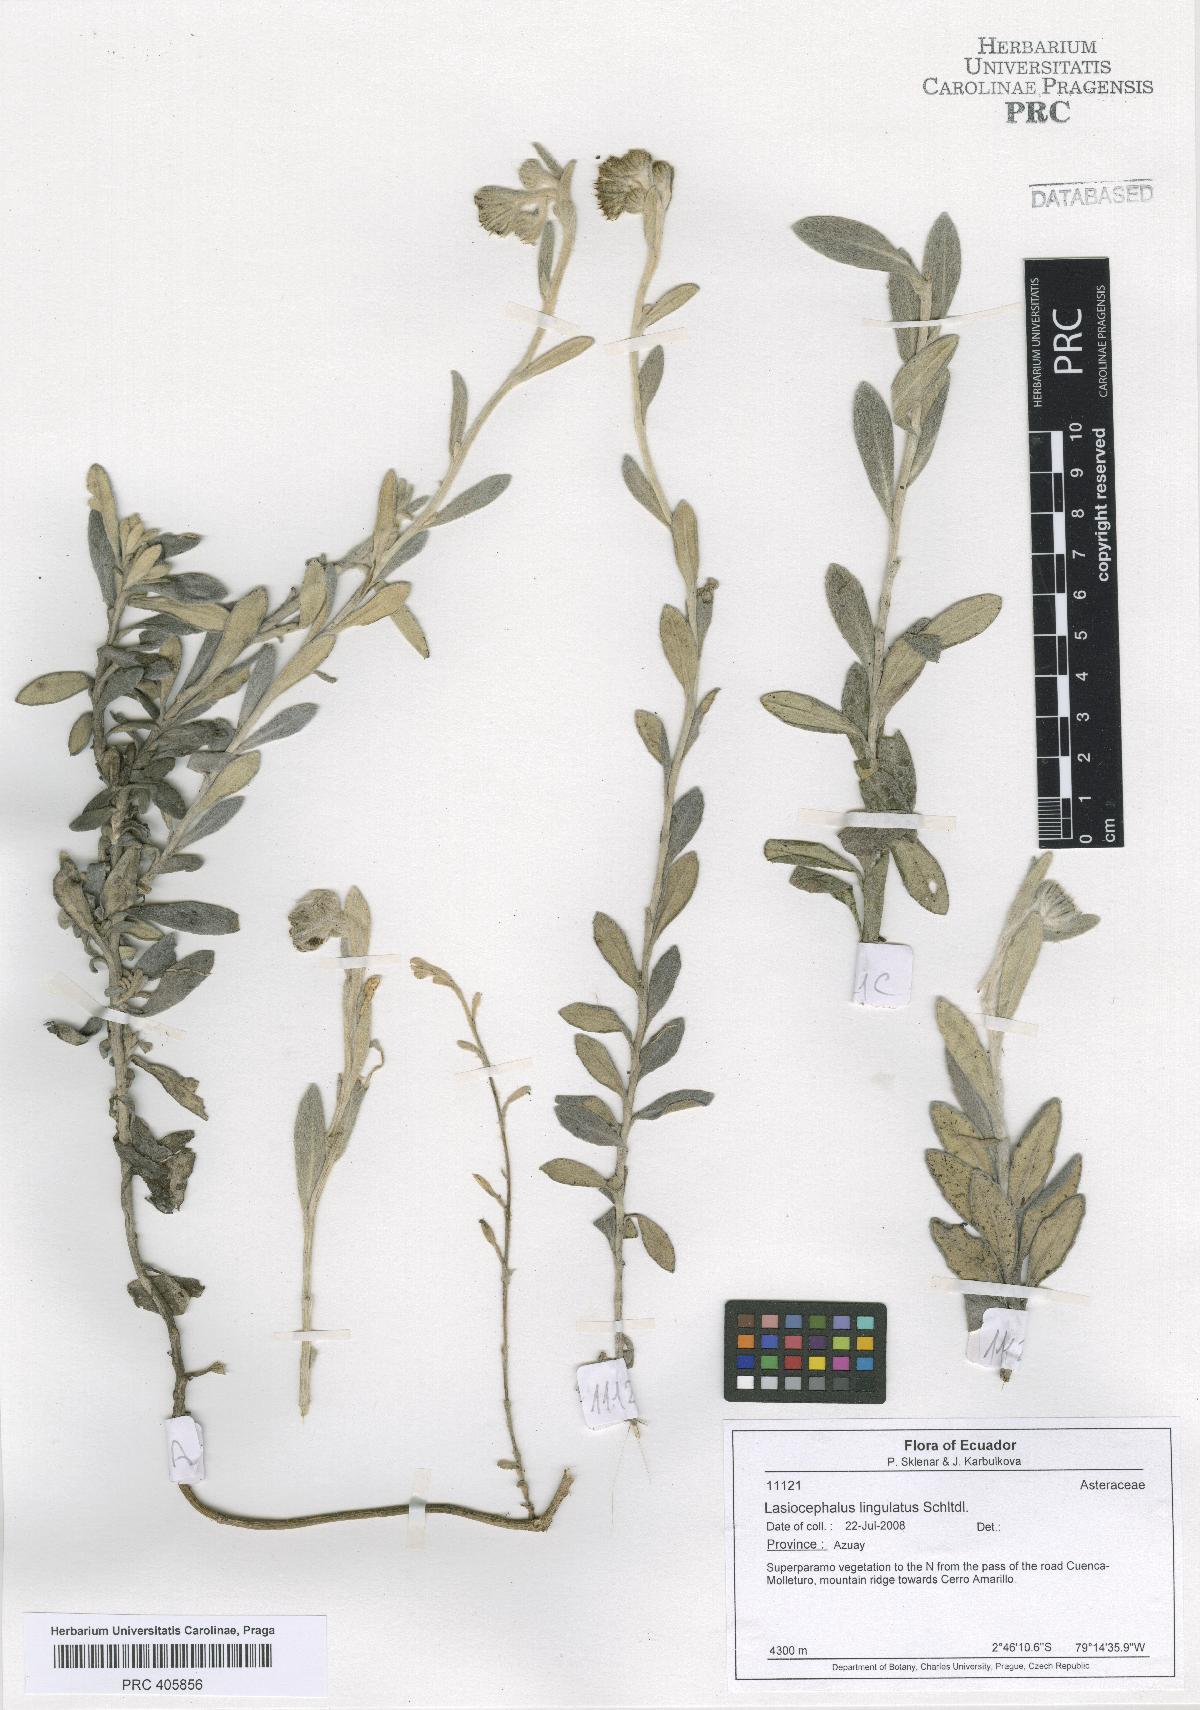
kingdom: Plantae
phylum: Tracheophyta
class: Magnoliopsida
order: Asterales
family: Asteraceae
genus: Lasiocephalus
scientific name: Lasiocephalus lingulatus
